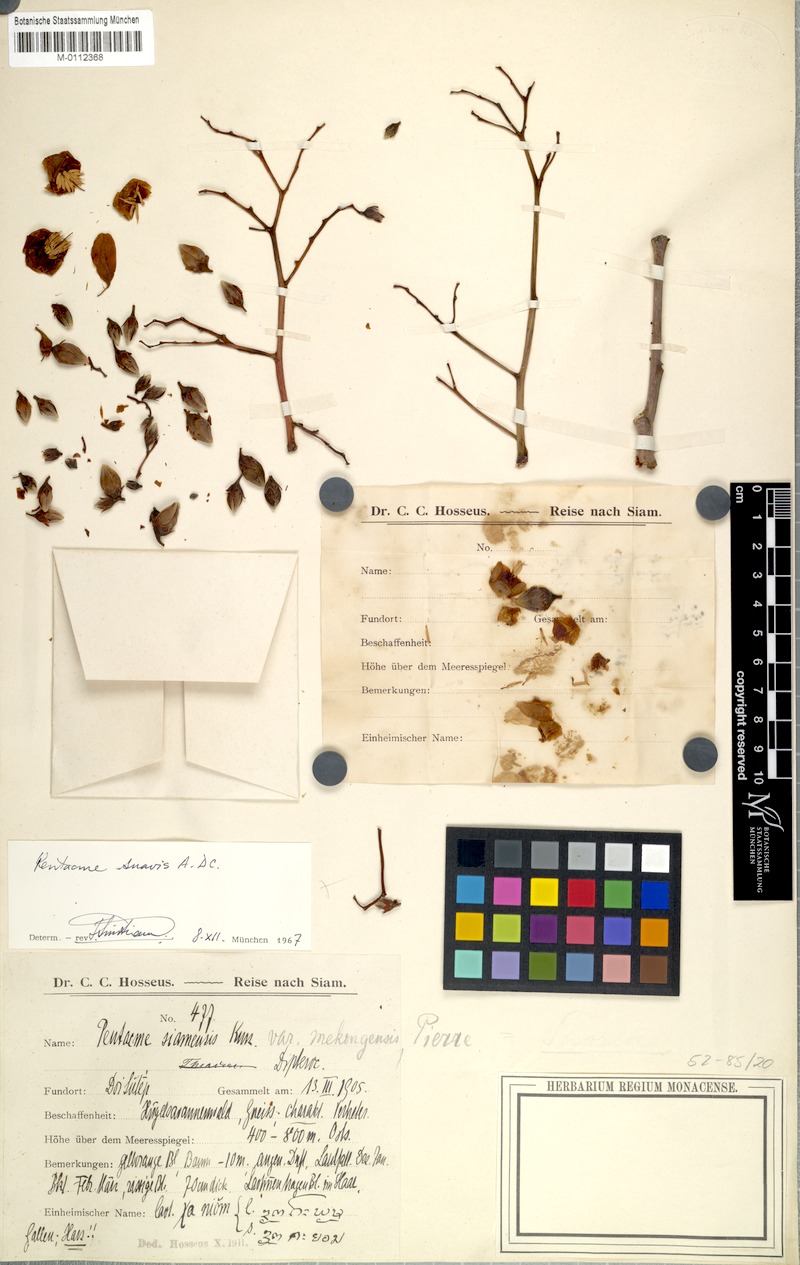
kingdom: Plantae
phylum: Tracheophyta
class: Magnoliopsida
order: Malvales
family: Dipterocarpaceae
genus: Pentacme
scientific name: Pentacme siamensis
